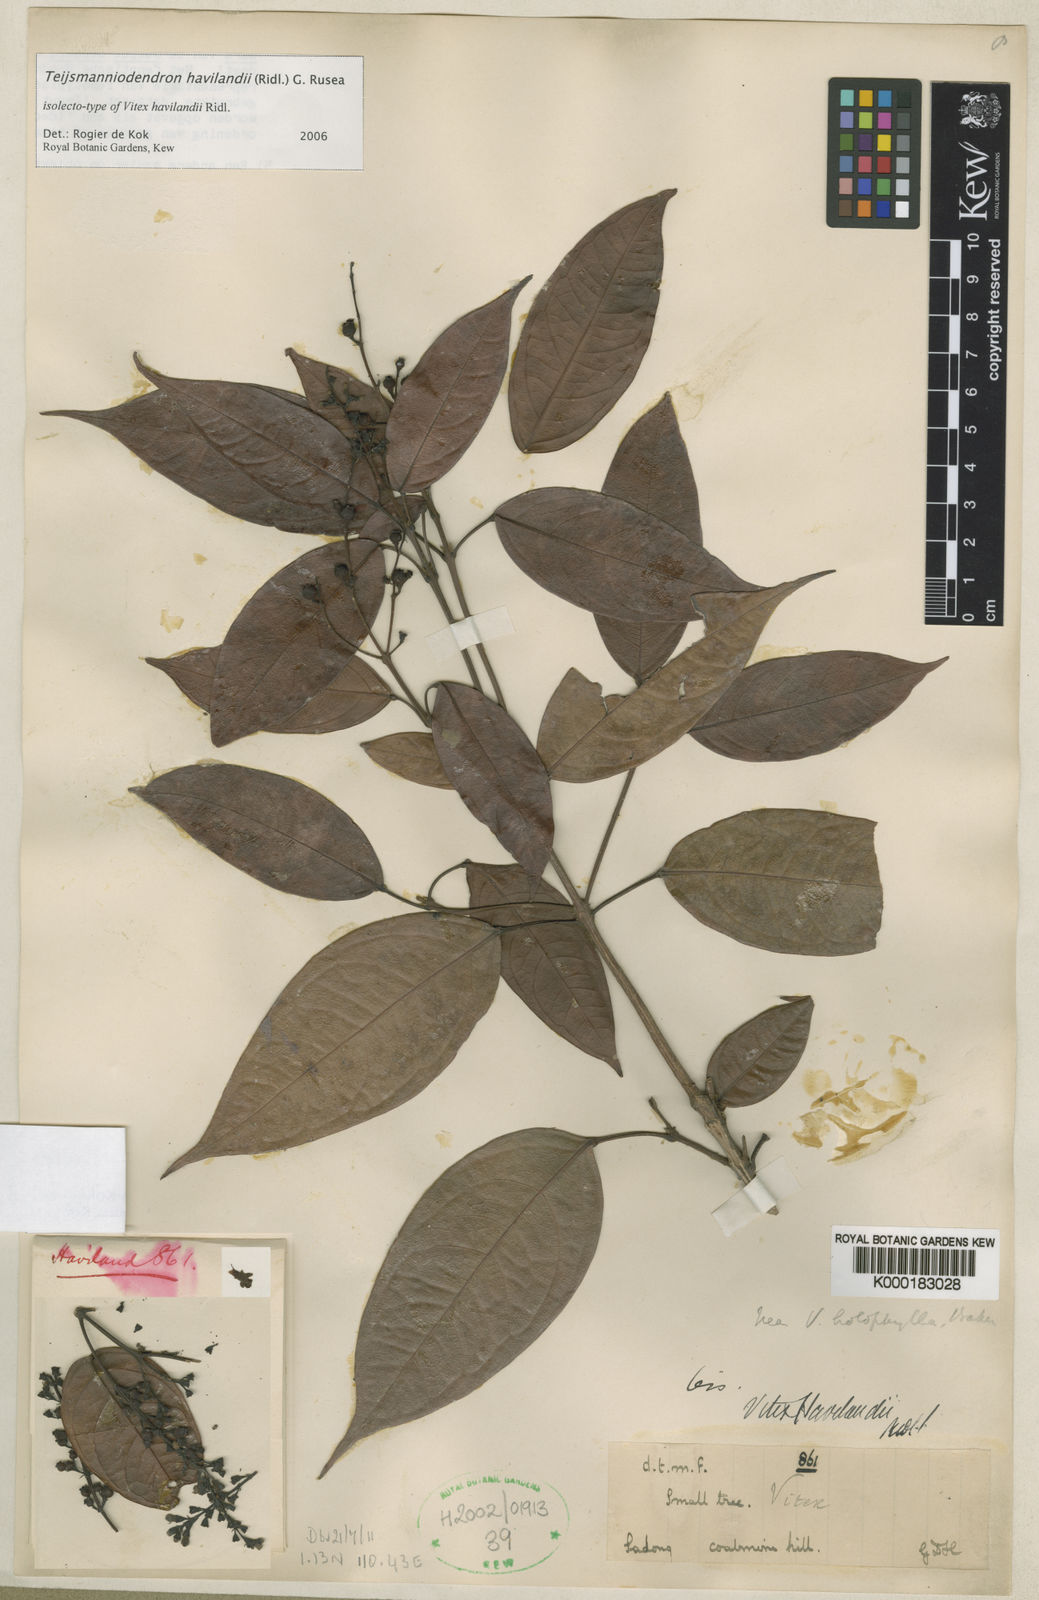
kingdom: Plantae
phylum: Tracheophyta
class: Magnoliopsida
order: Lamiales
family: Lamiaceae
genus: Teijsmanniodendron
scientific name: Teijsmanniodendron havilandii
